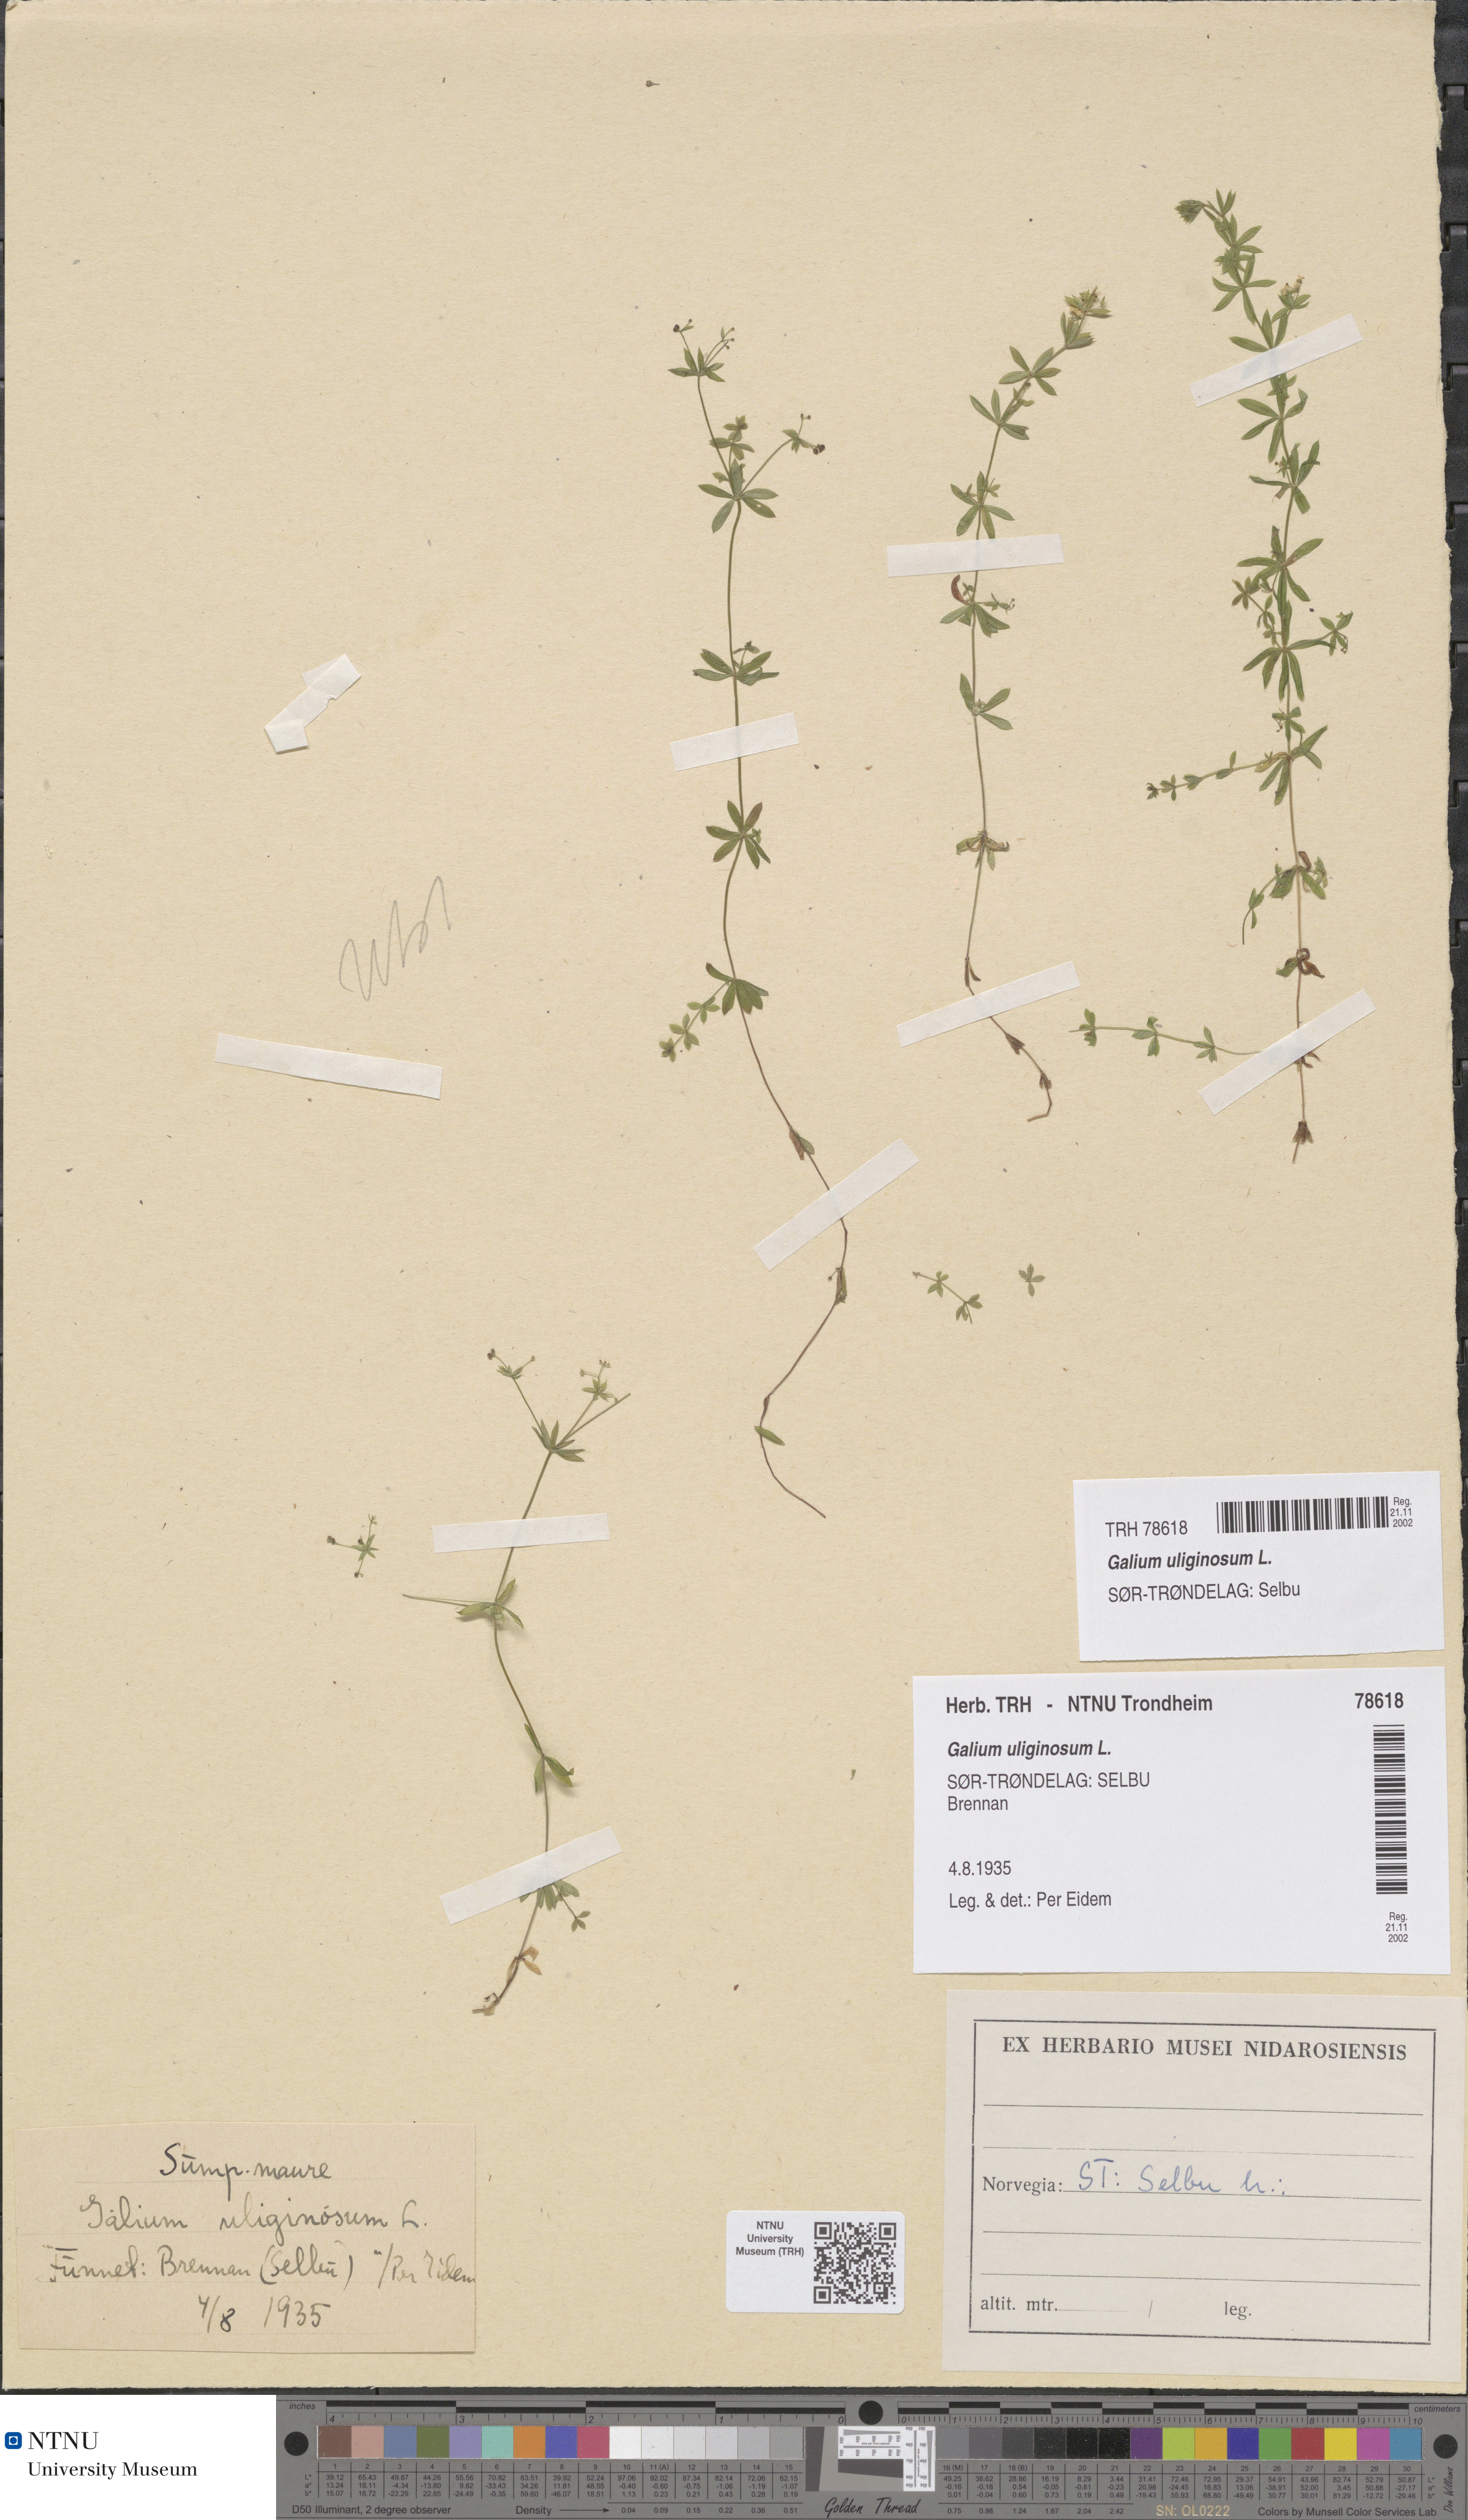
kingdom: Plantae
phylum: Tracheophyta
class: Magnoliopsida
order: Gentianales
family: Rubiaceae
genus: Galium
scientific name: Galium uliginosum
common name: Fen bedstraw
